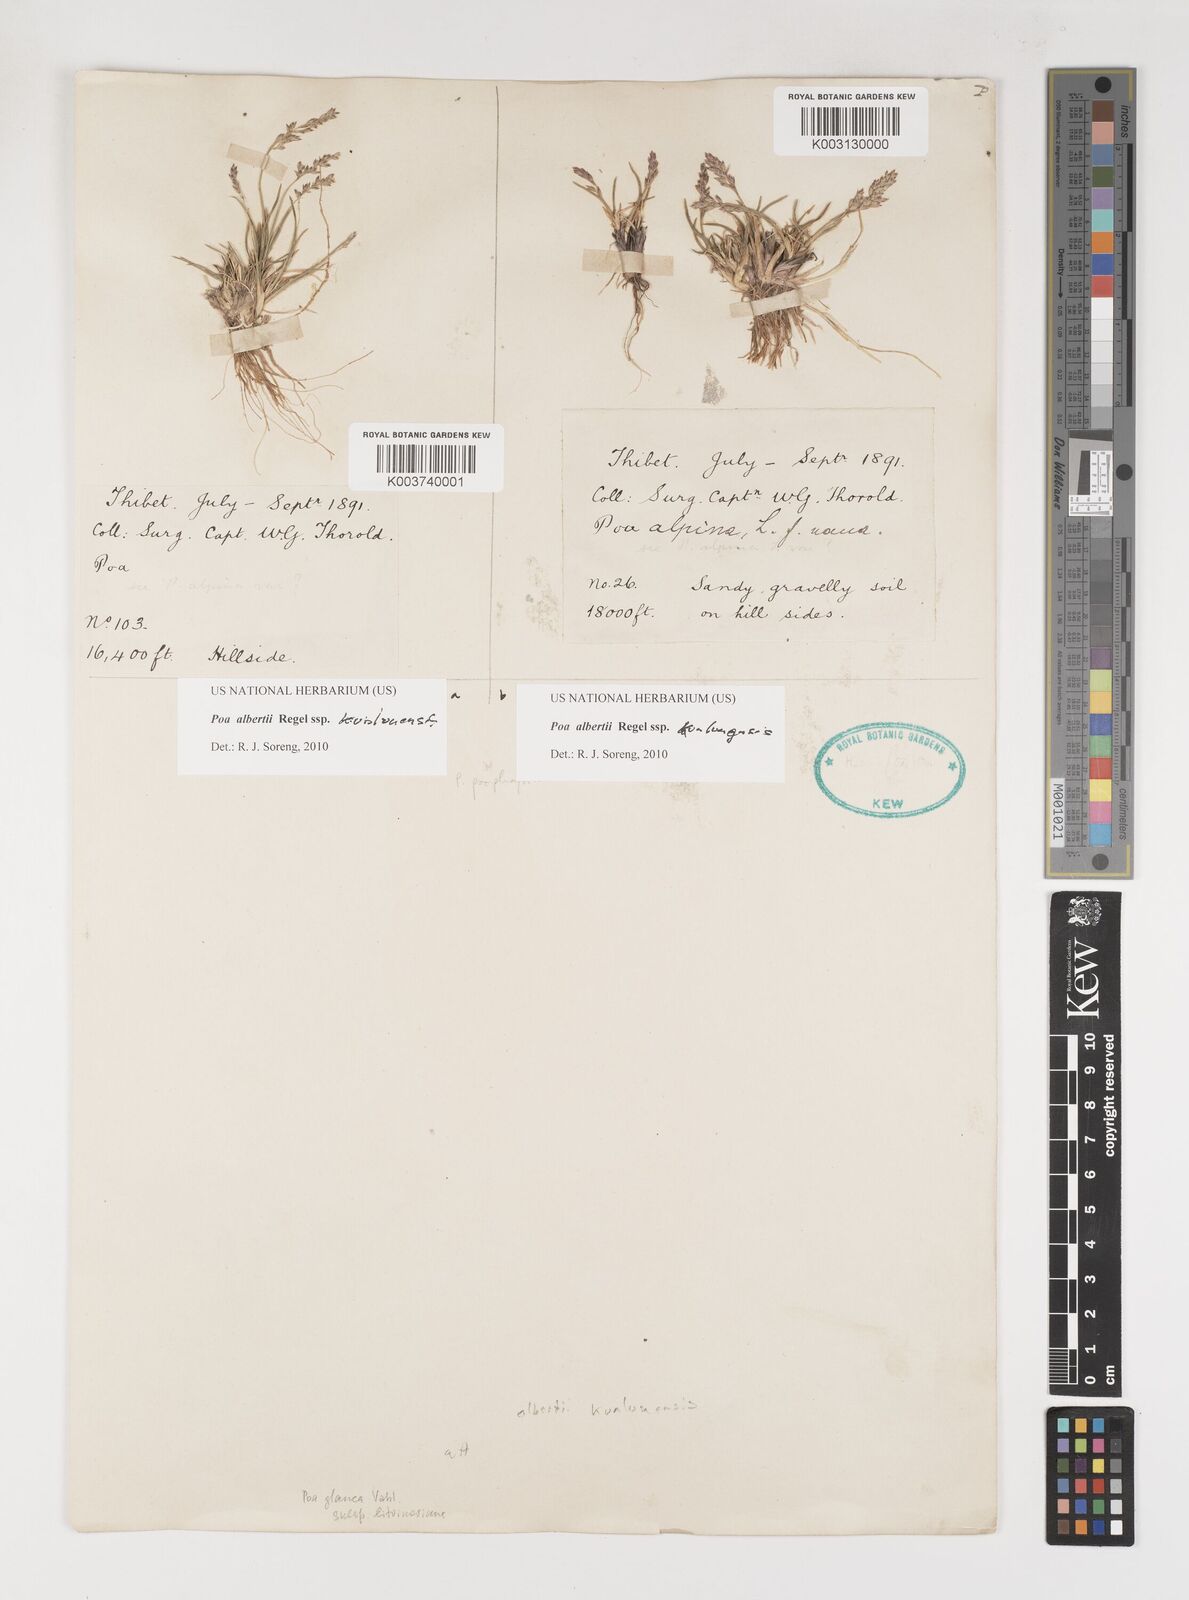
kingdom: Plantae
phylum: Tracheophyta
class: Liliopsida
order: Poales
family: Poaceae
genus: Poa
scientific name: Poa alberti
